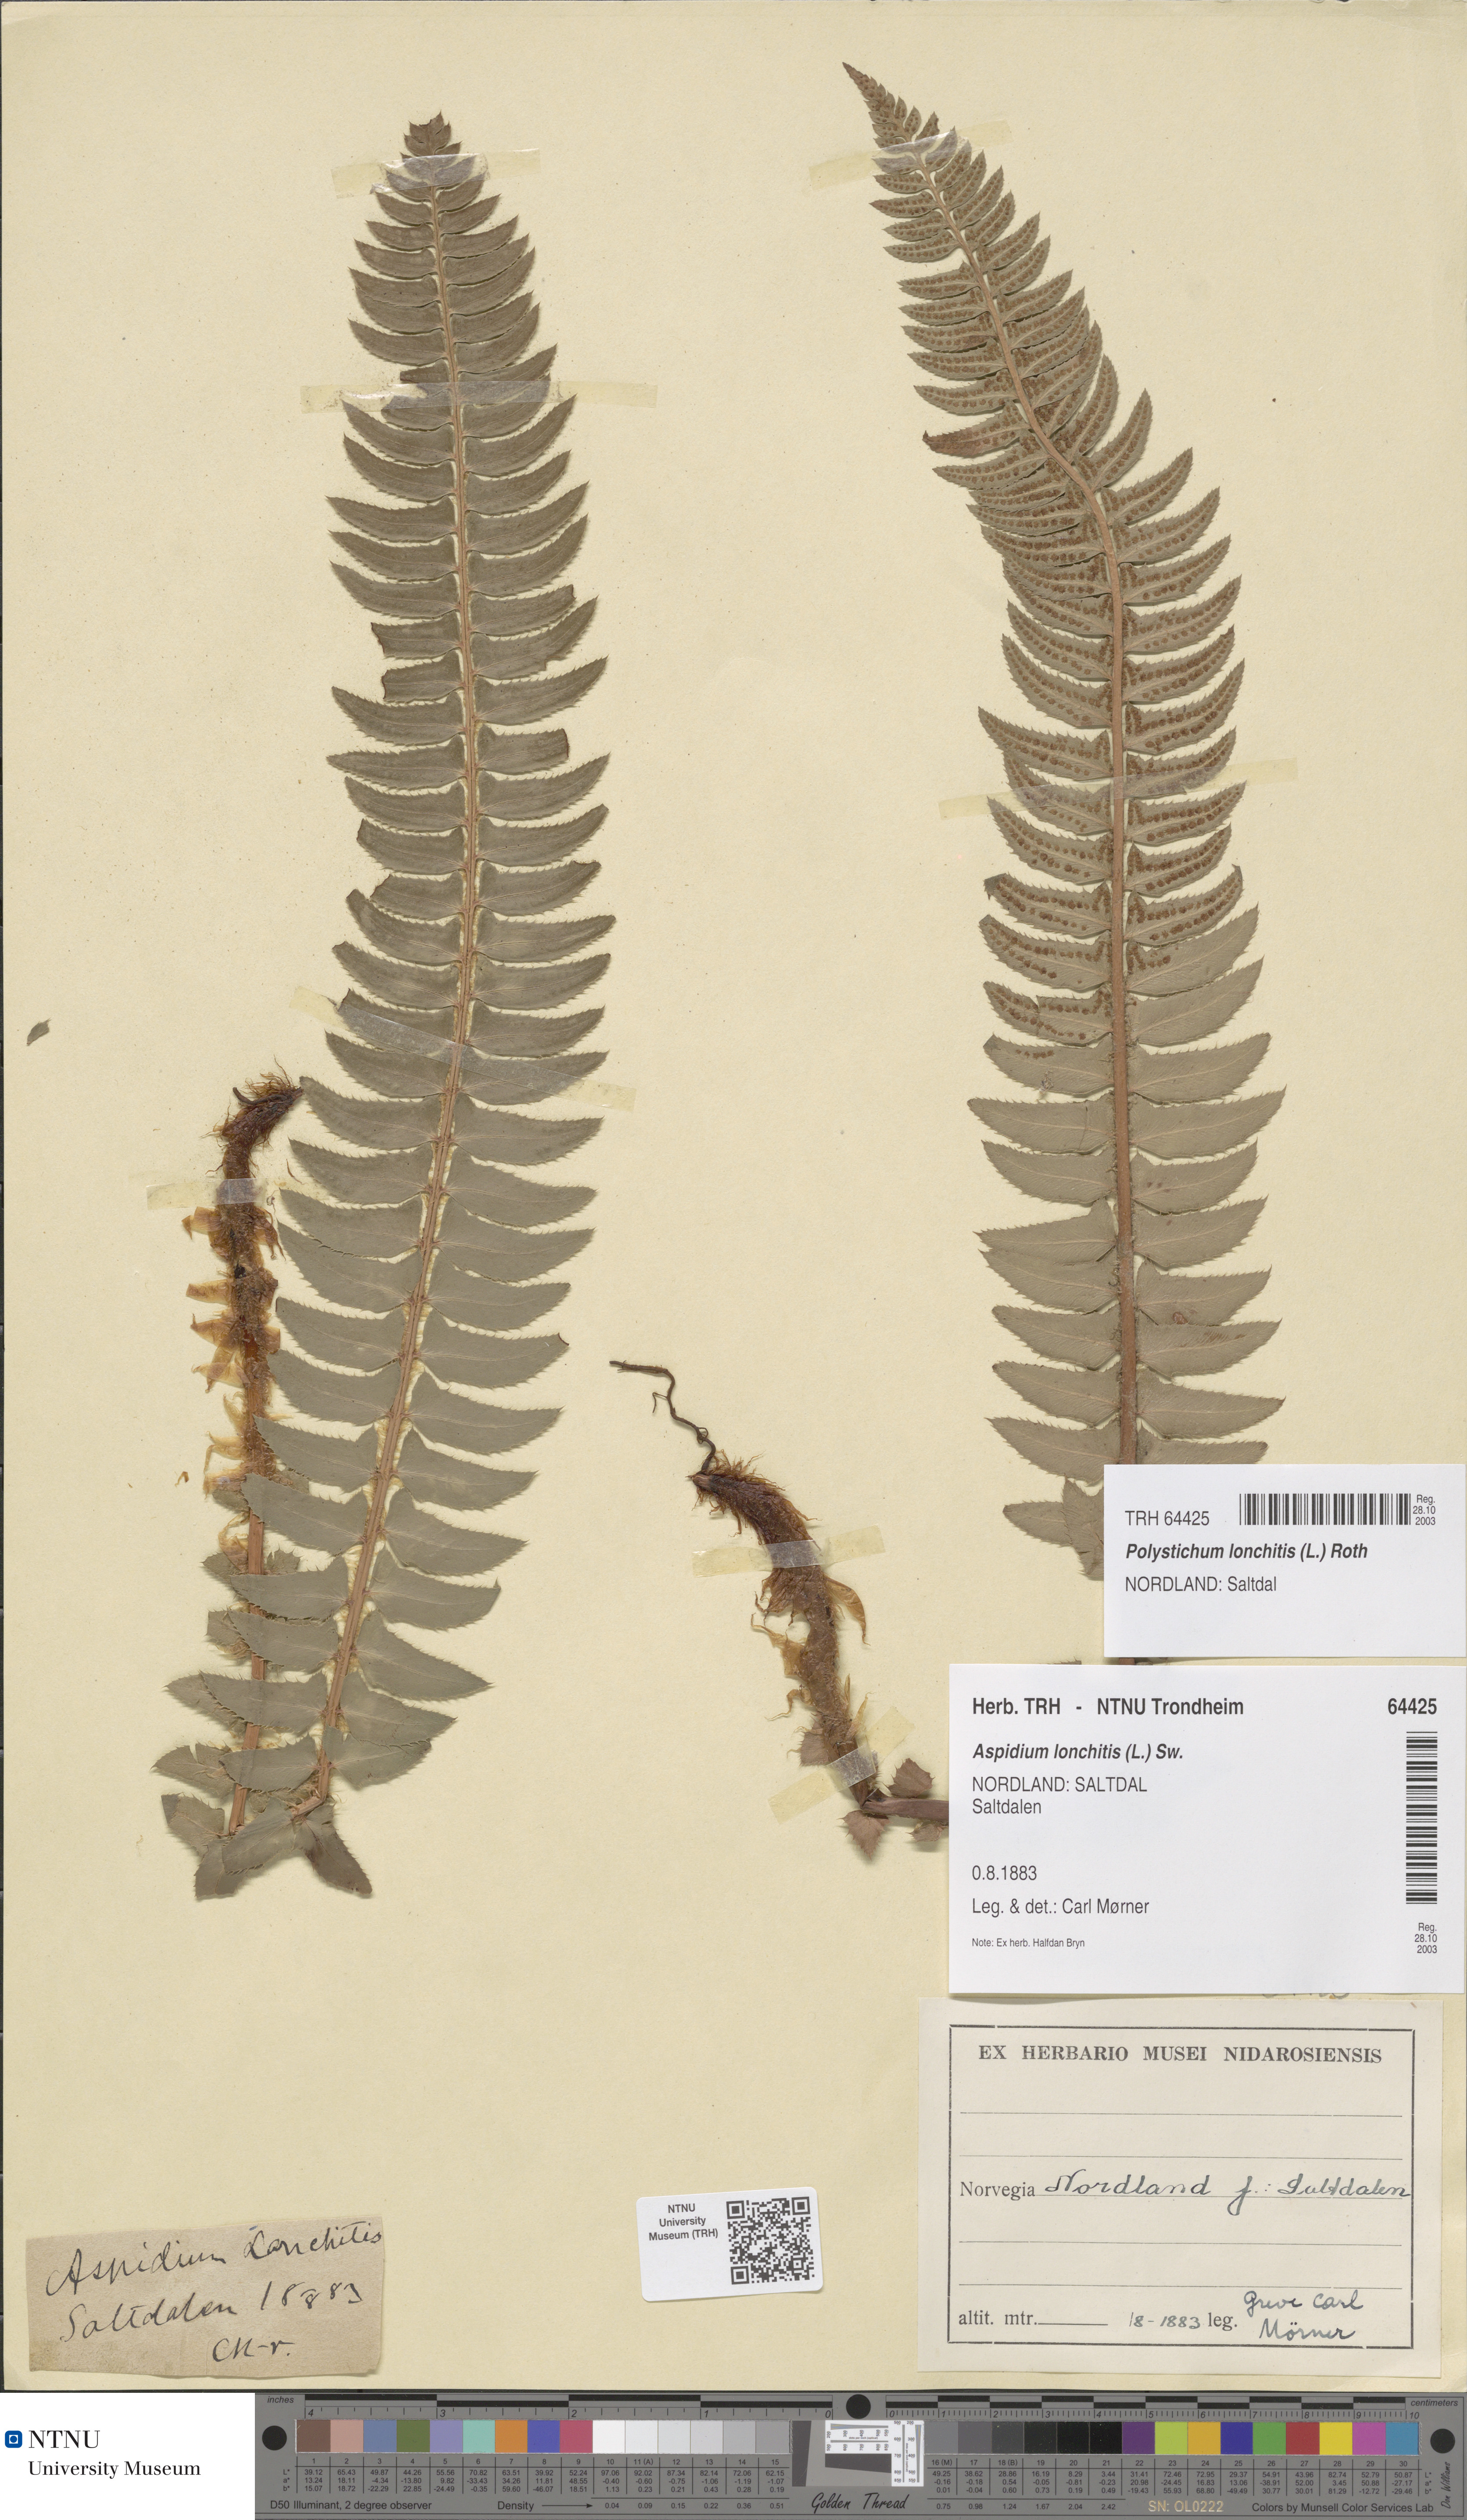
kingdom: Plantae
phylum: Tracheophyta
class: Polypodiopsida
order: Polypodiales
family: Dryopteridaceae
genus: Polystichum
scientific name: Polystichum lonchitis
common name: Holly fern
